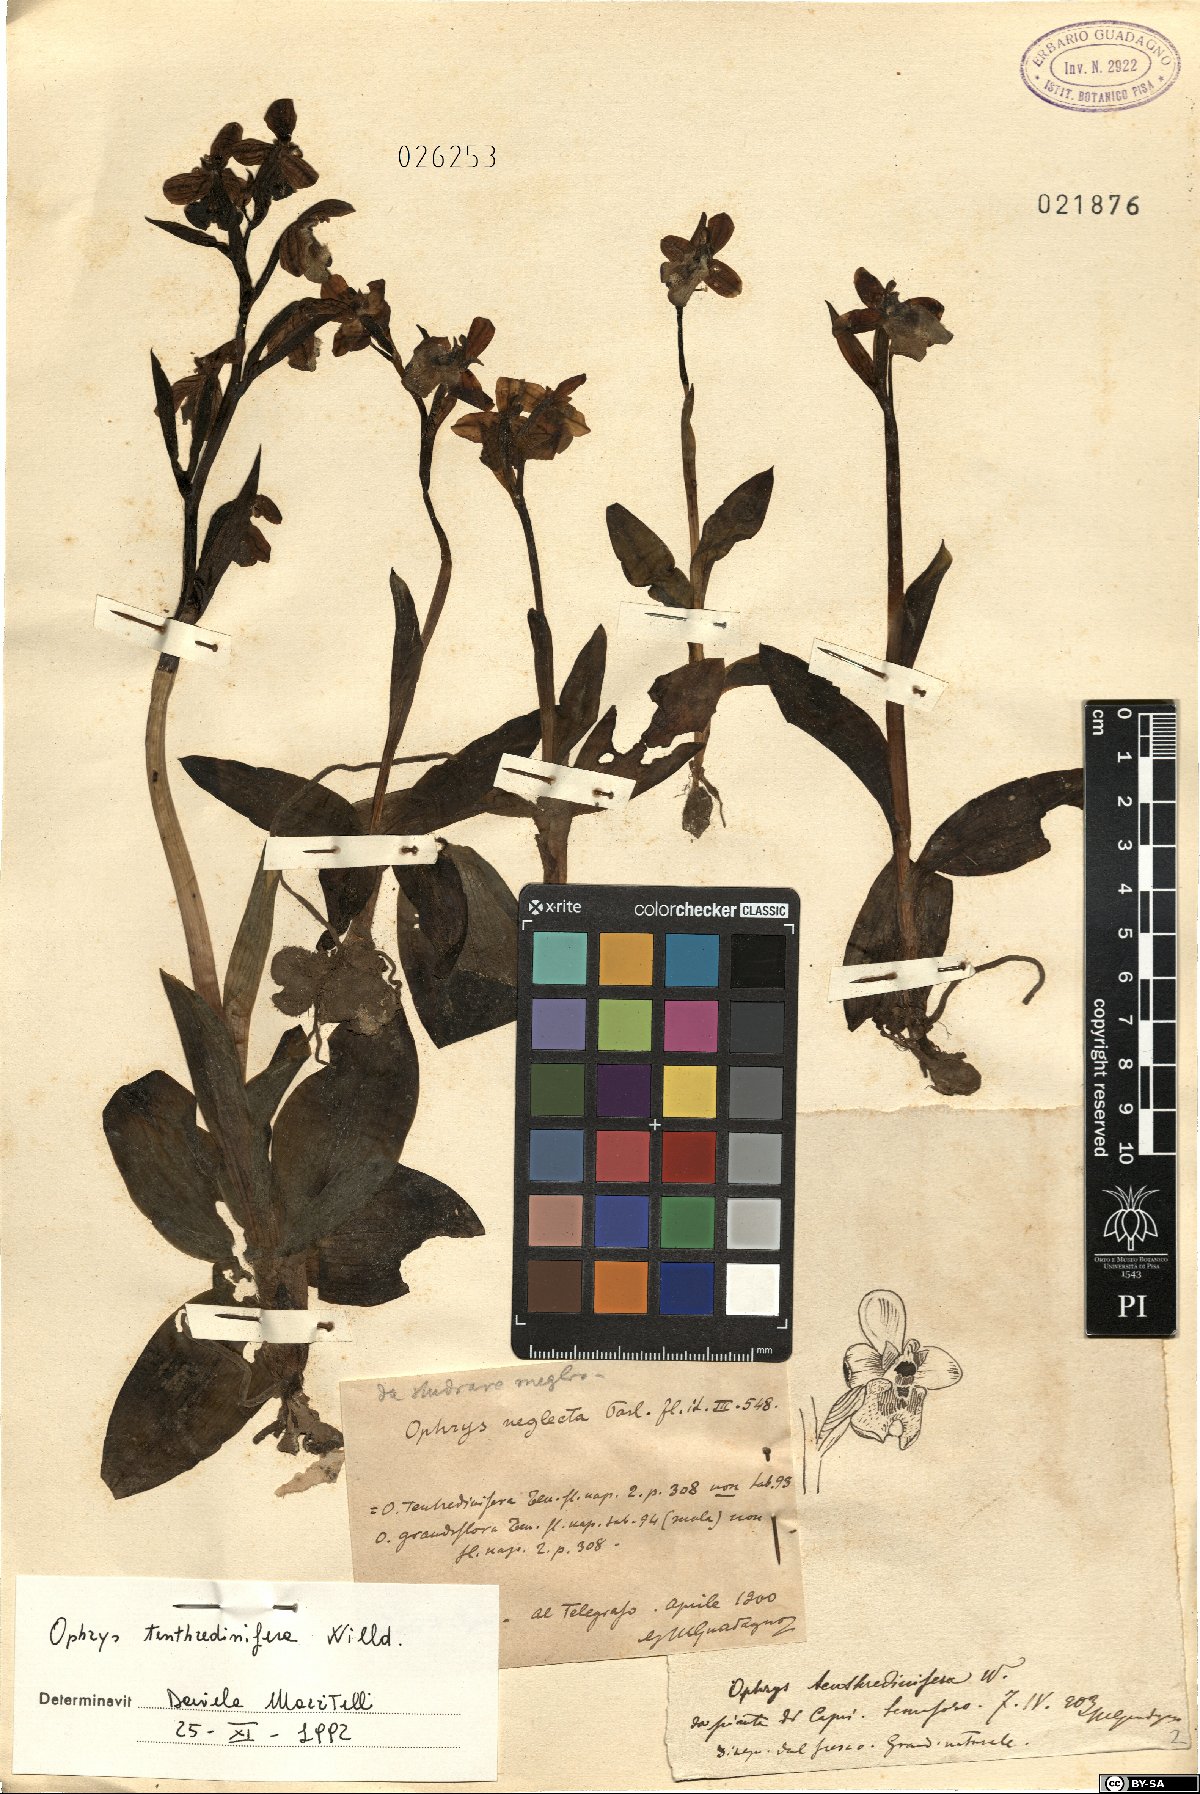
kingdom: Plantae
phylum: Tracheophyta
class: Liliopsida
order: Asparagales
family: Orchidaceae
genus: Ophrys
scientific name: Ophrys tenthredinifera
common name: Sawfly orchid
